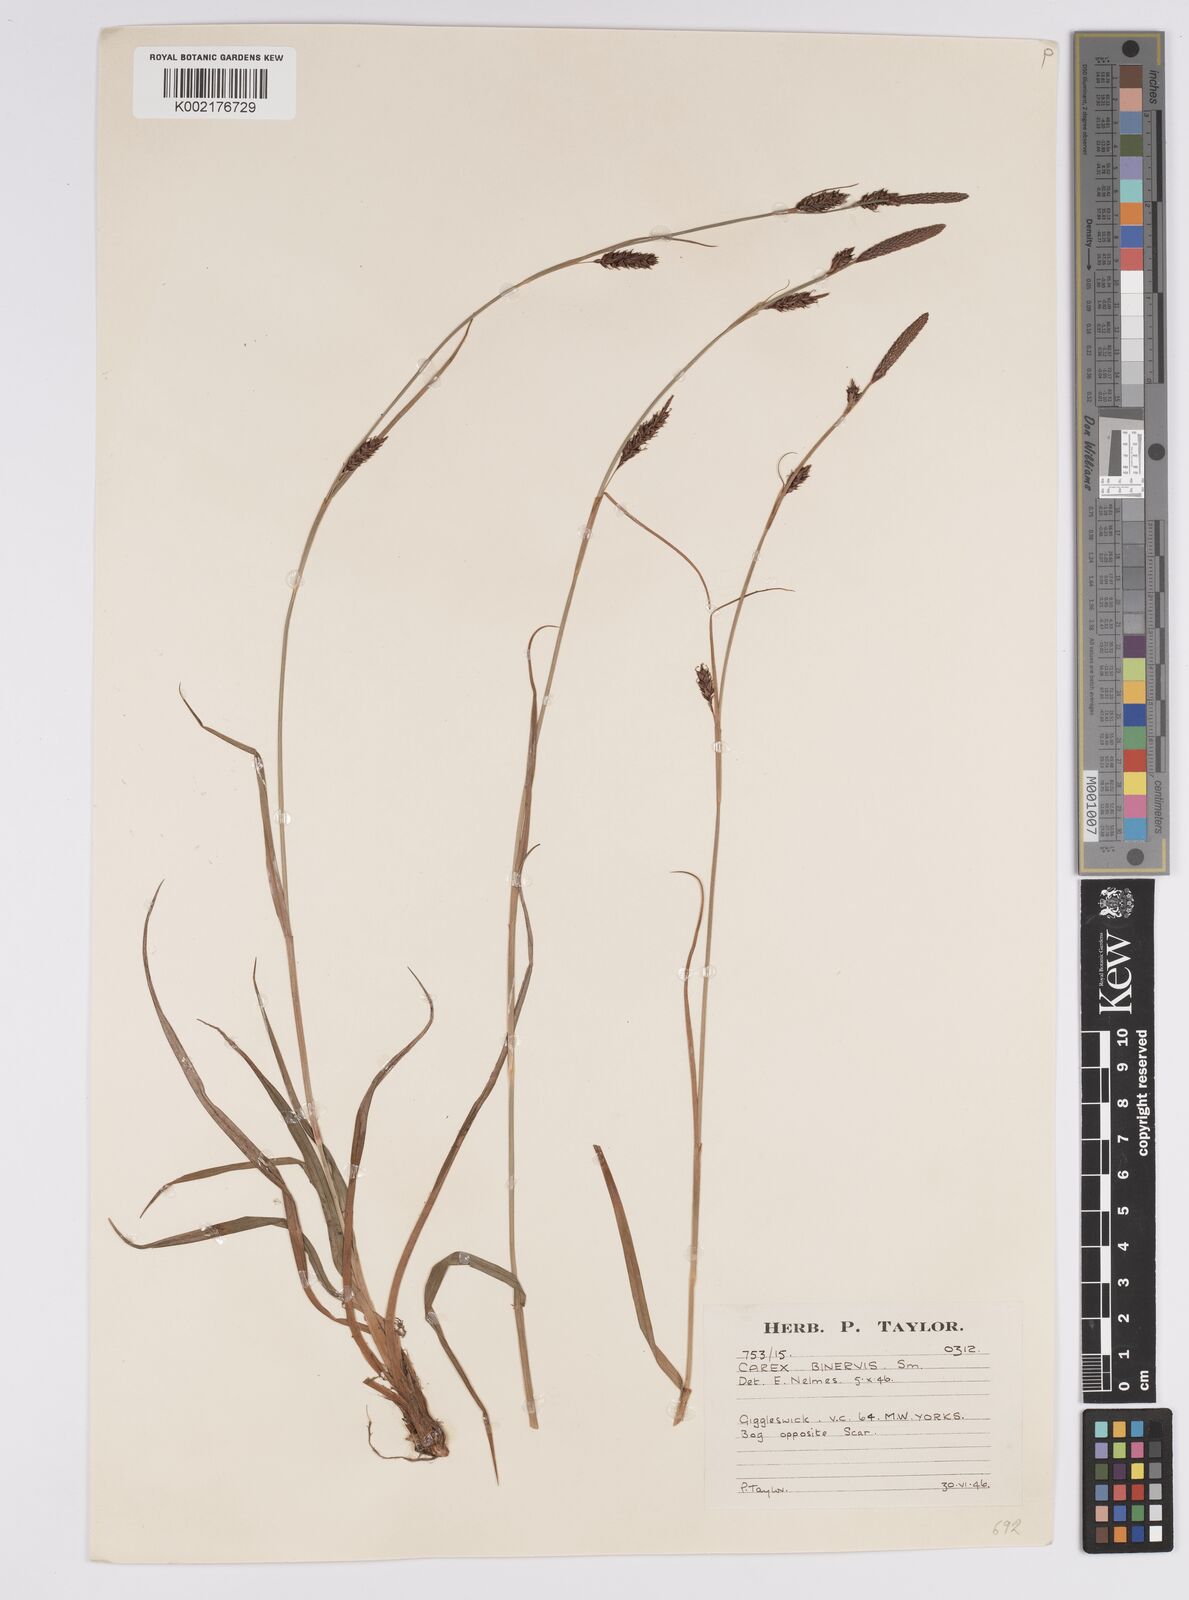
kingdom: Plantae
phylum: Tracheophyta
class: Liliopsida
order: Poales
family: Cyperaceae
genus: Carex
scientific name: Carex binervis
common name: Green-ribbed sedge
